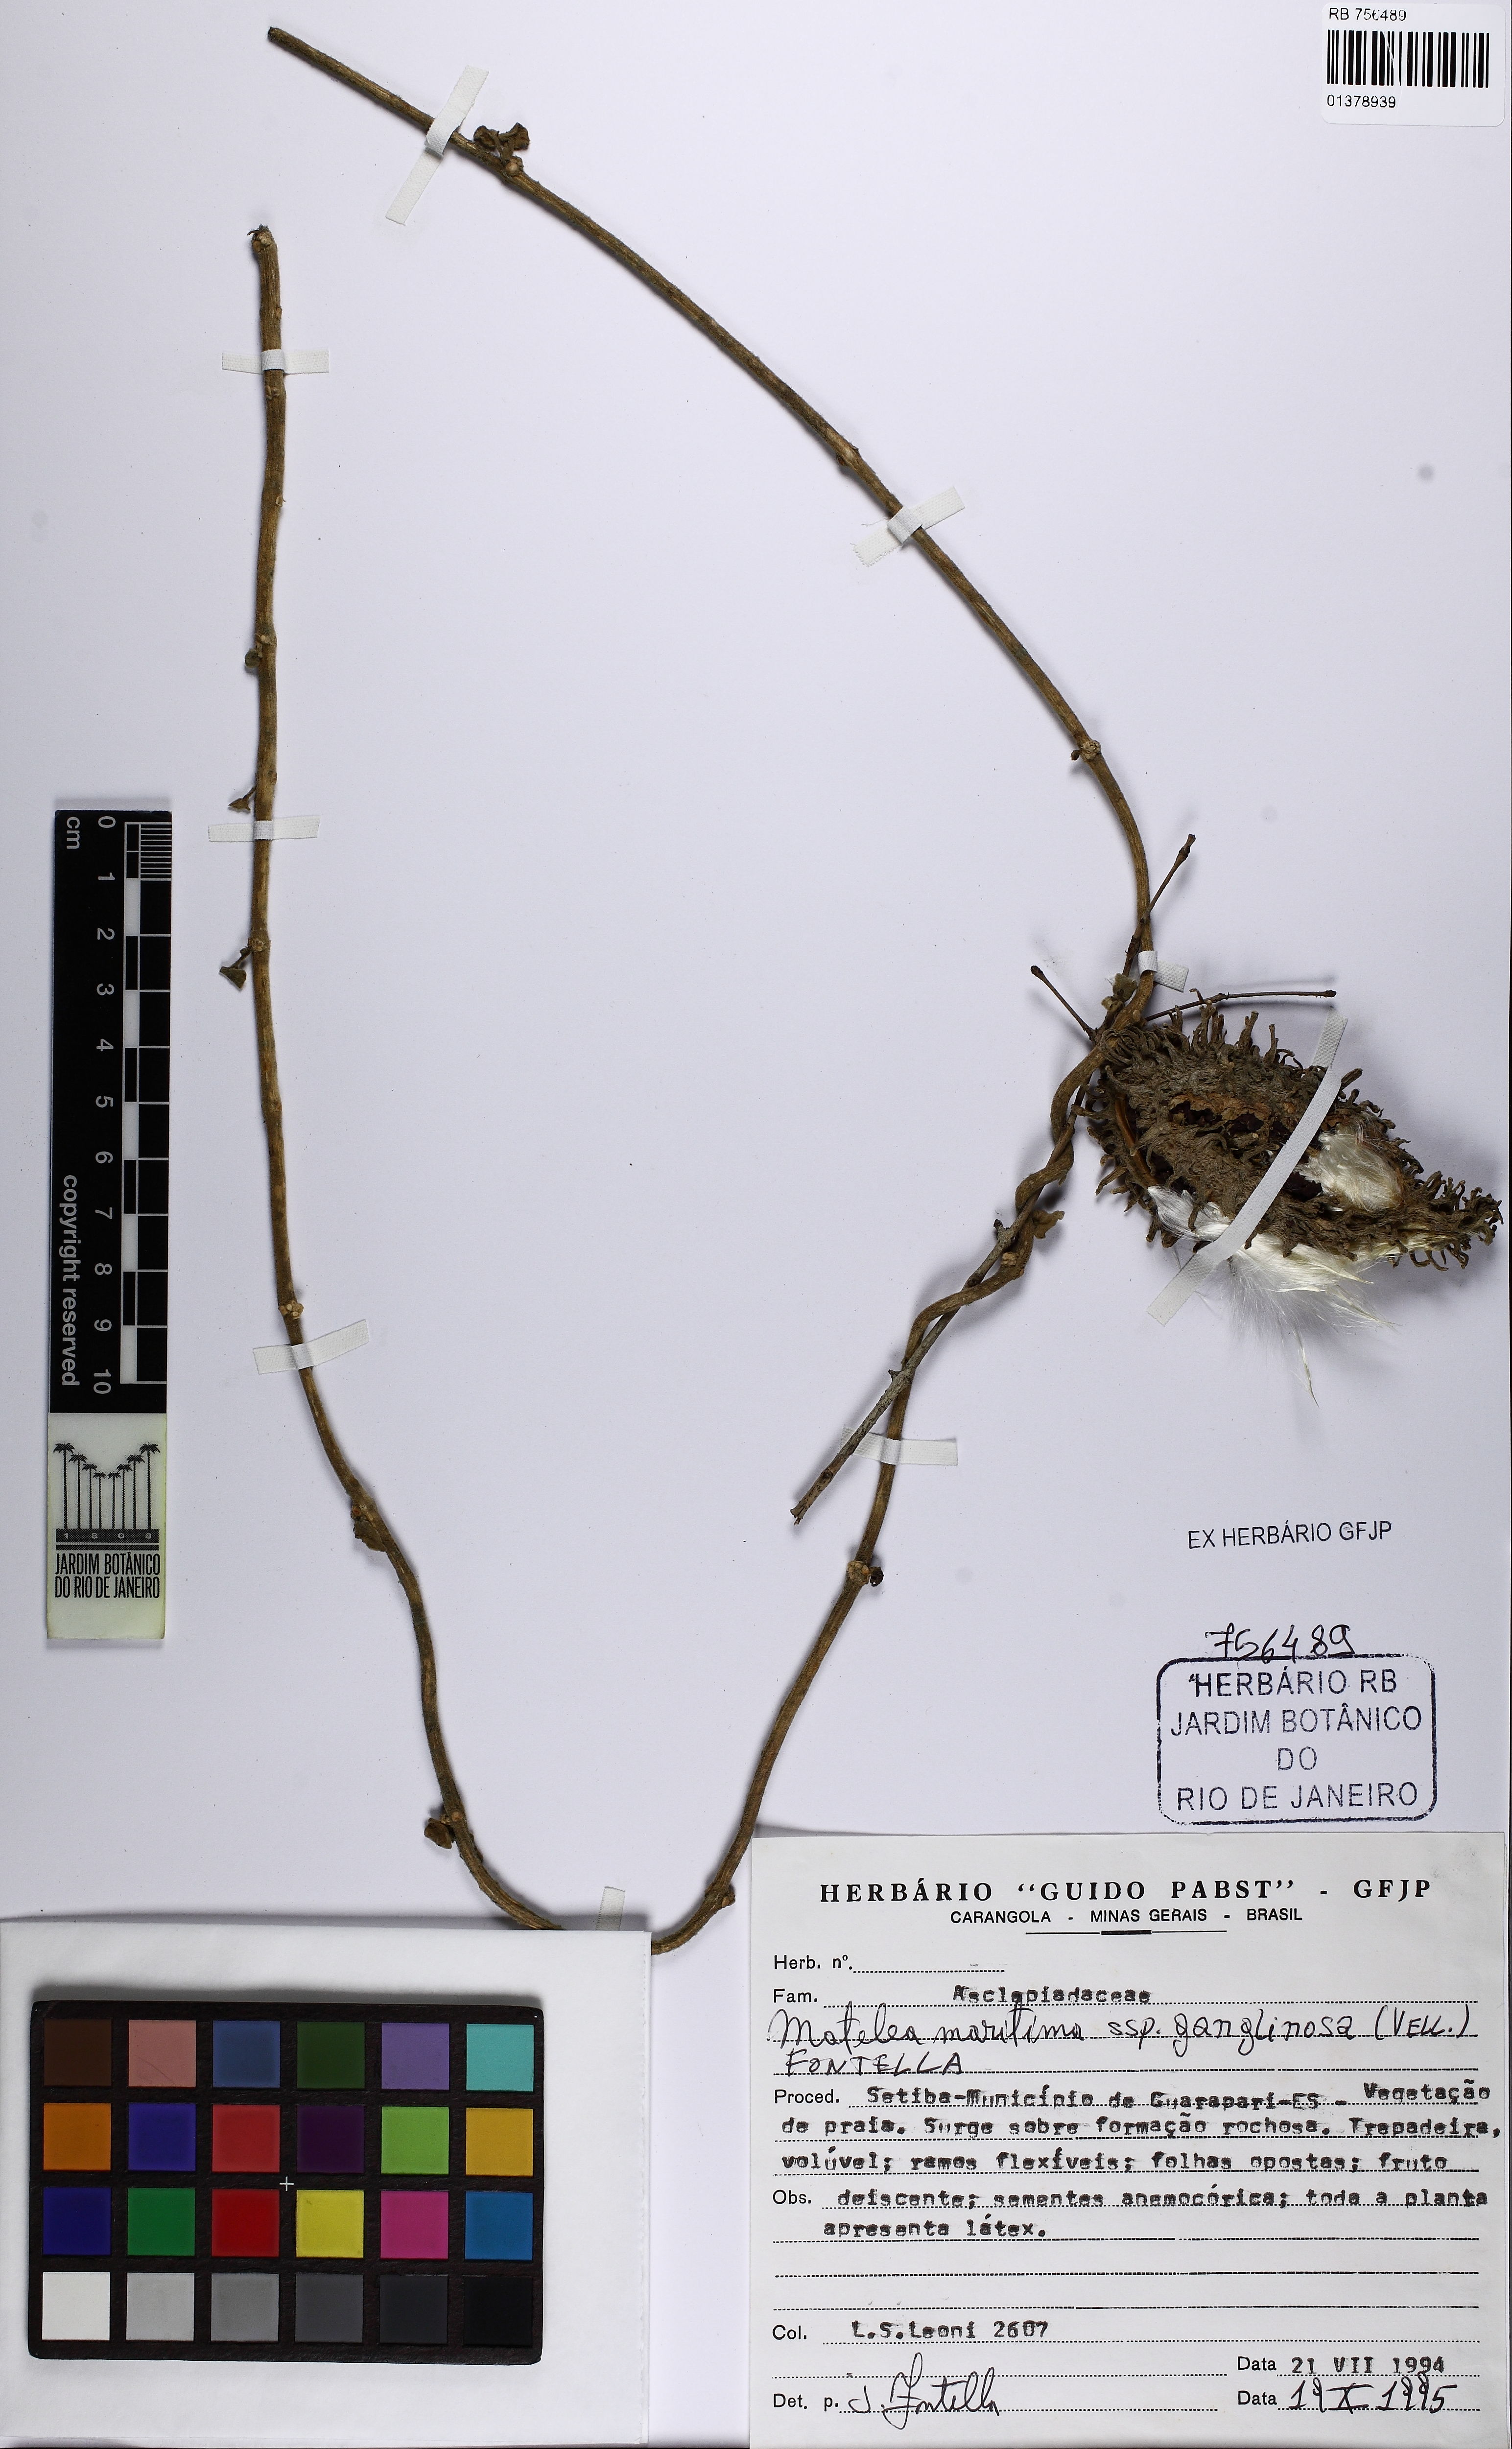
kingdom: Plantae
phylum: Tracheophyta
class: Magnoliopsida
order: Gentianales
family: Apocynaceae
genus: Ibatia
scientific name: Ibatia ganglinosa
